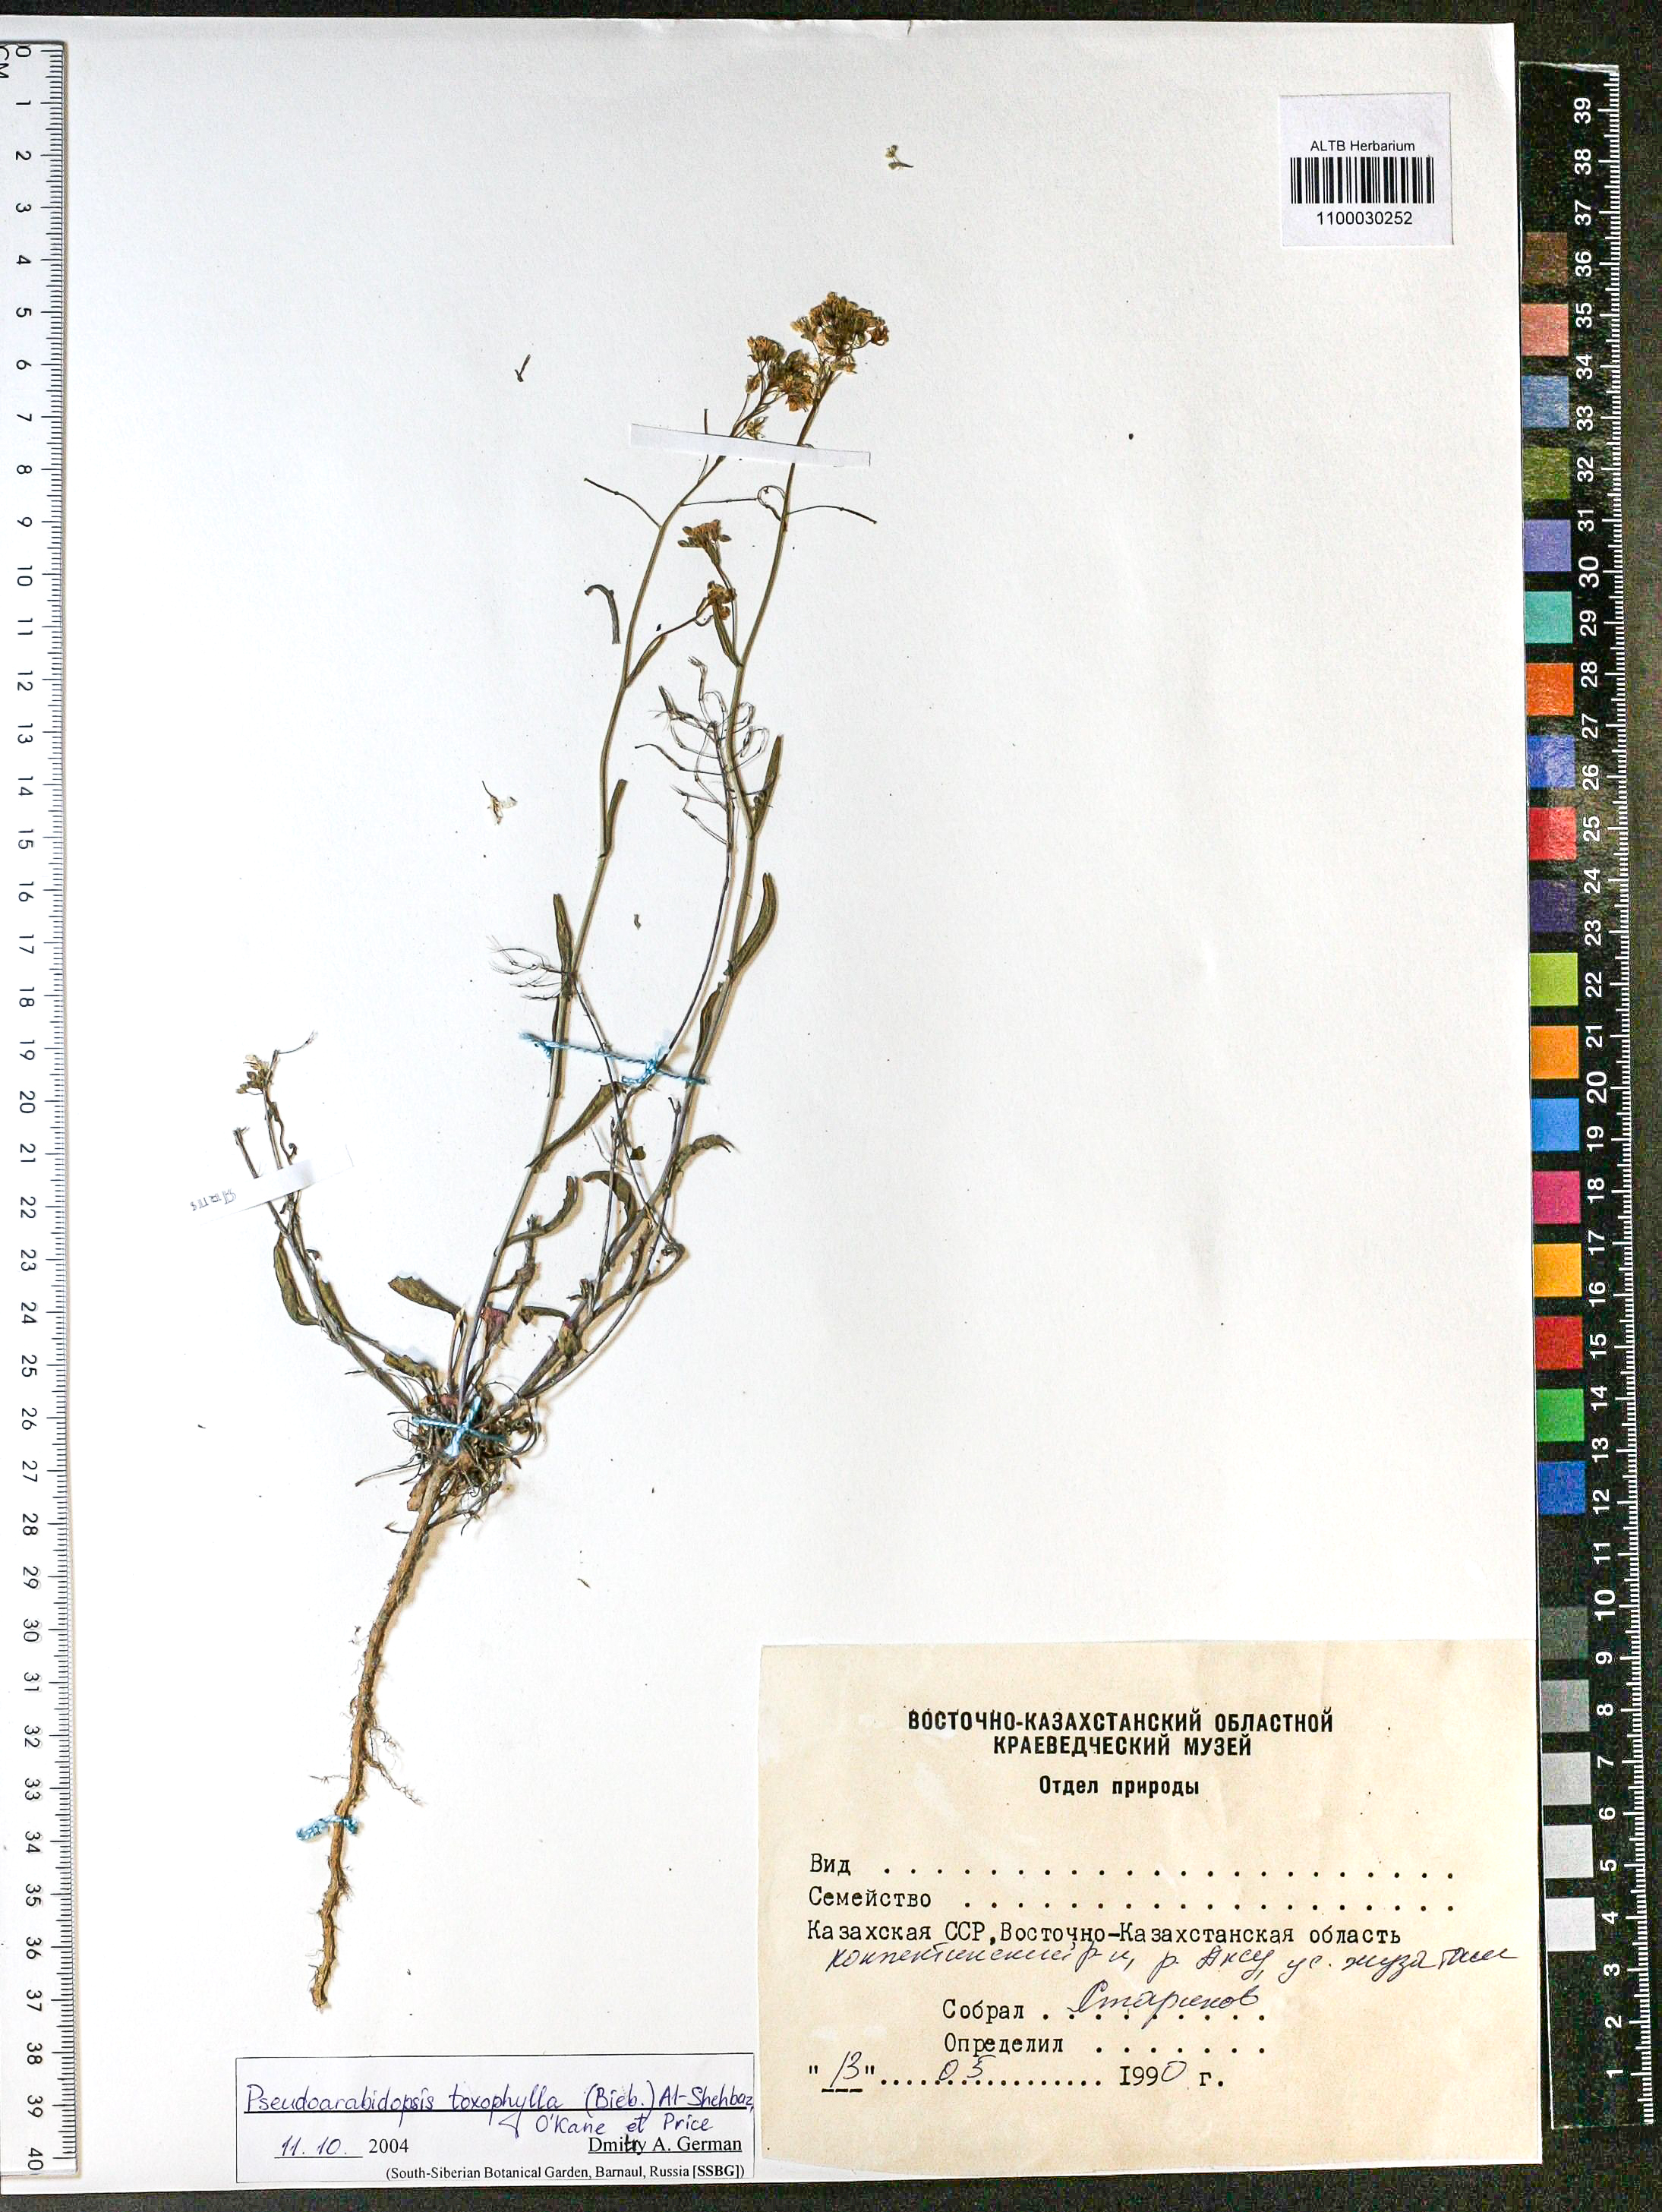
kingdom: Plantae
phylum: Tracheophyta
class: Magnoliopsida
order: Brassicales
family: Brassicaceae
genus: Pseudoarabidopsis
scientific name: Pseudoarabidopsis toxophylla
